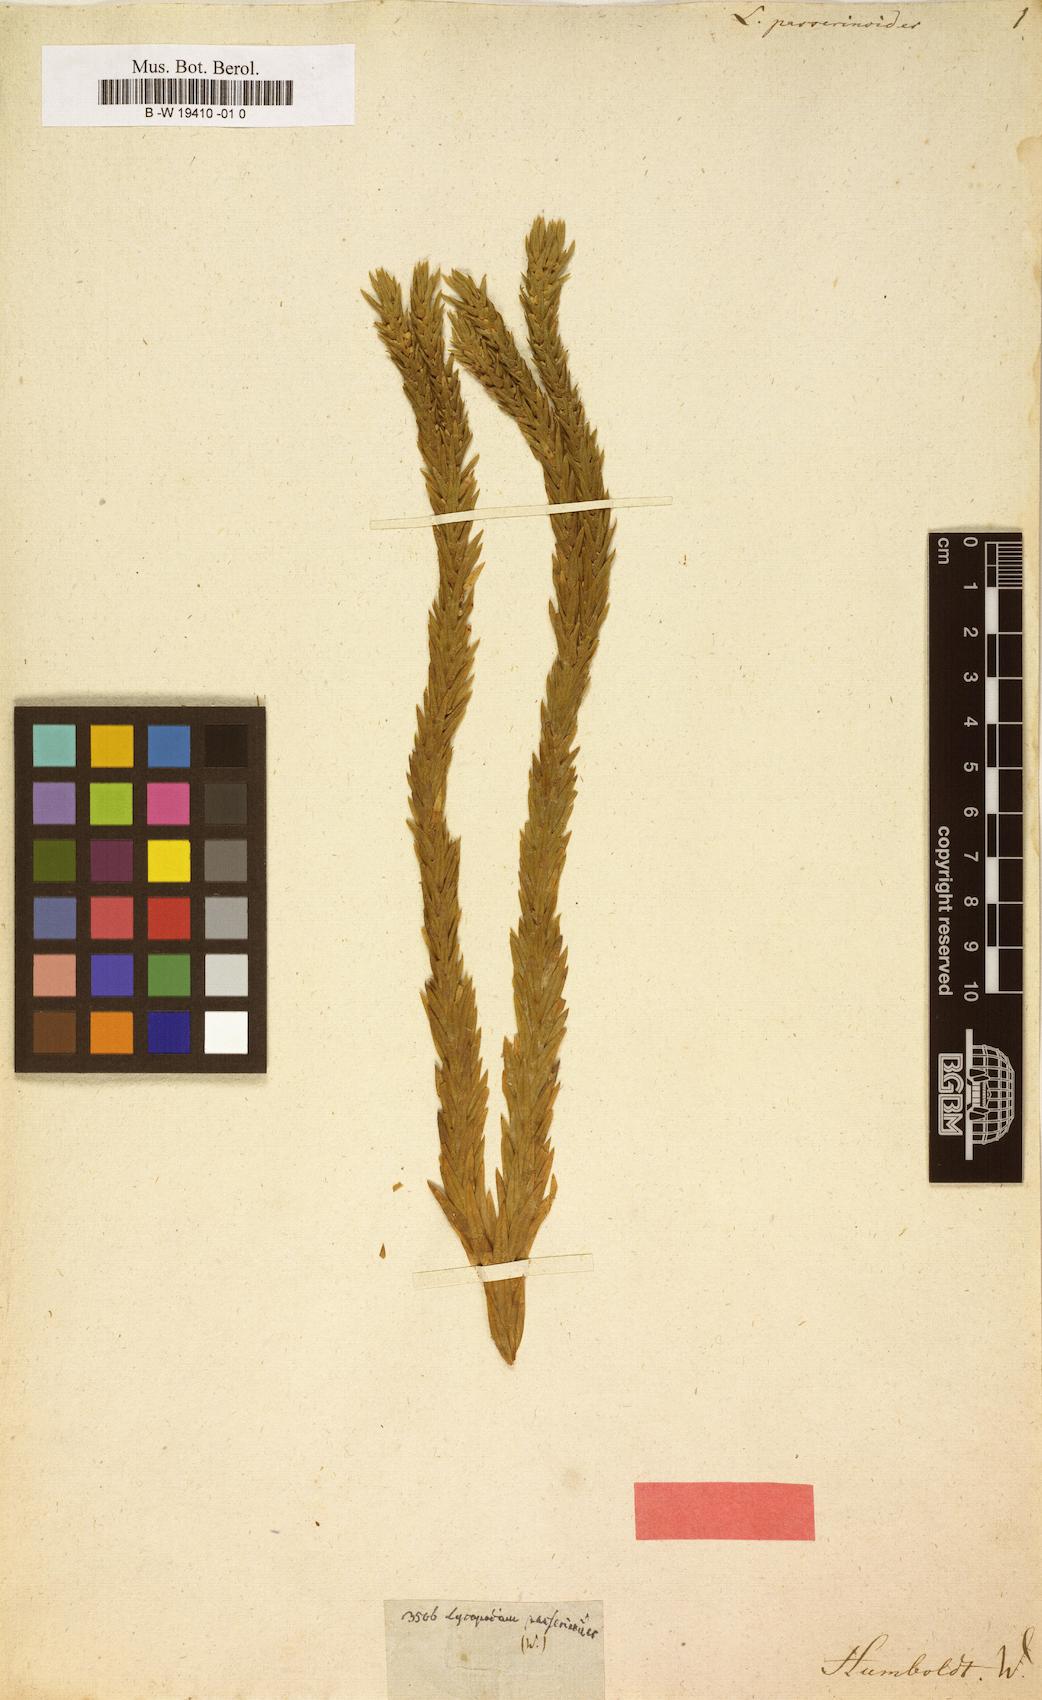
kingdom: Plantae
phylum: Tracheophyta
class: Lycopodiopsida
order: Lycopodiales
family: Lycopodiaceae
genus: Phlegmariurus
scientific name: Phlegmariurus taxifolius
